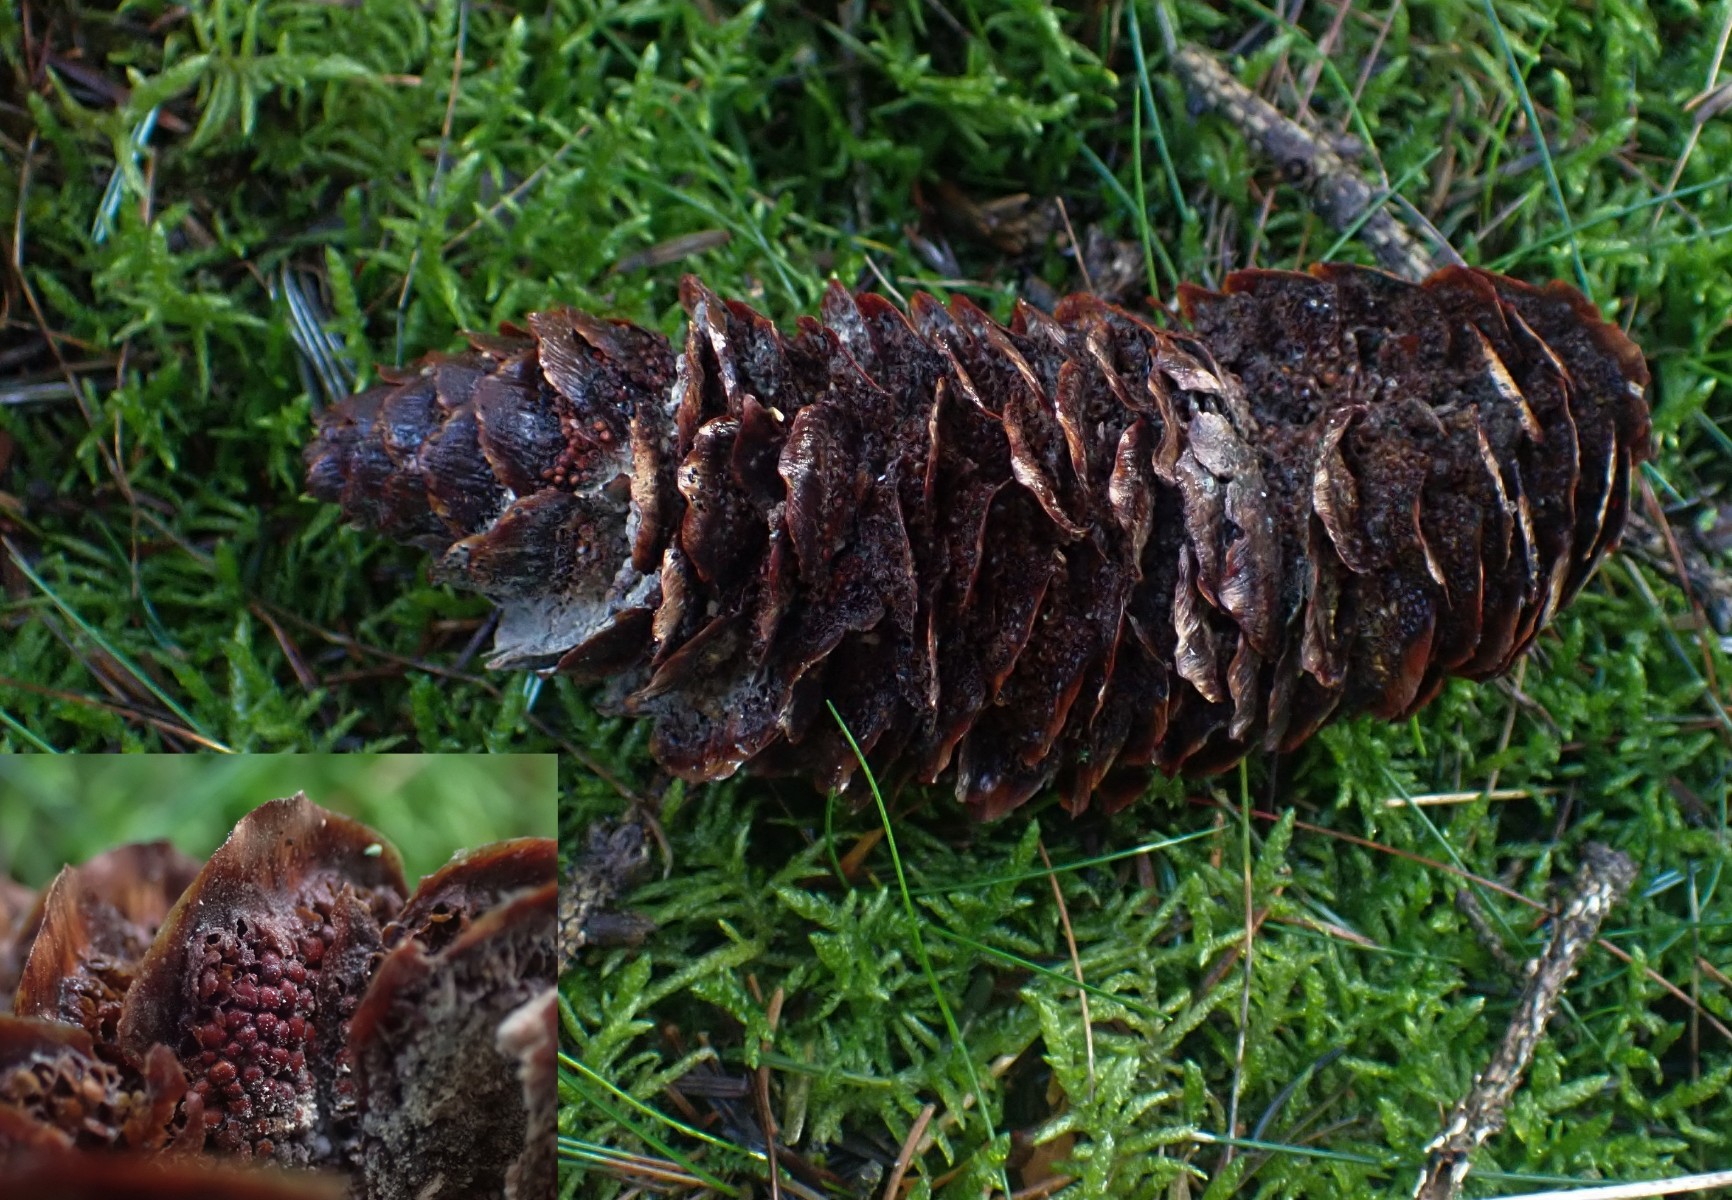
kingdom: Fungi
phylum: Basidiomycota
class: Pucciniomycetes
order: Pucciniales
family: Pucciniastraceae
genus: Thekopsora
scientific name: Thekopsora areolata
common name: grankogle-nålerust
